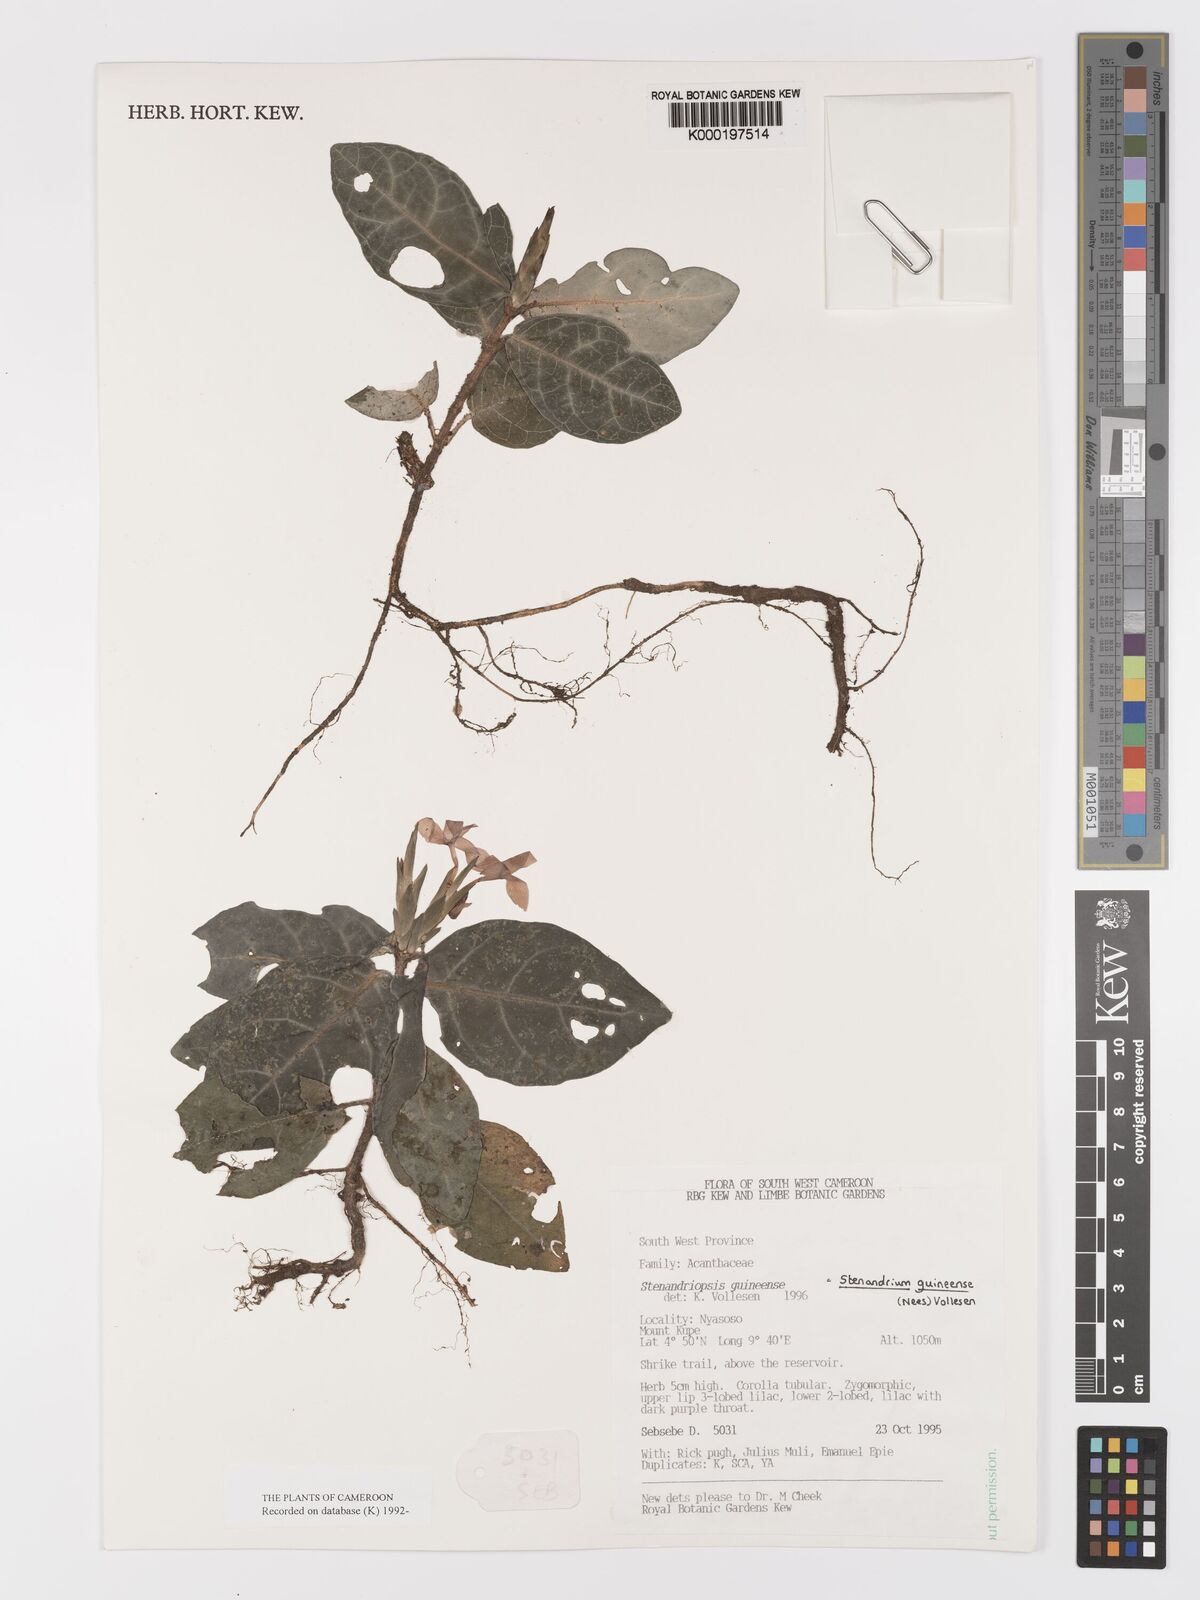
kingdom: Plantae
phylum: Tracheophyta
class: Magnoliopsida
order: Lamiales
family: Acanthaceae
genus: Stenandriopsis
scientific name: Stenandriopsis guineensis
